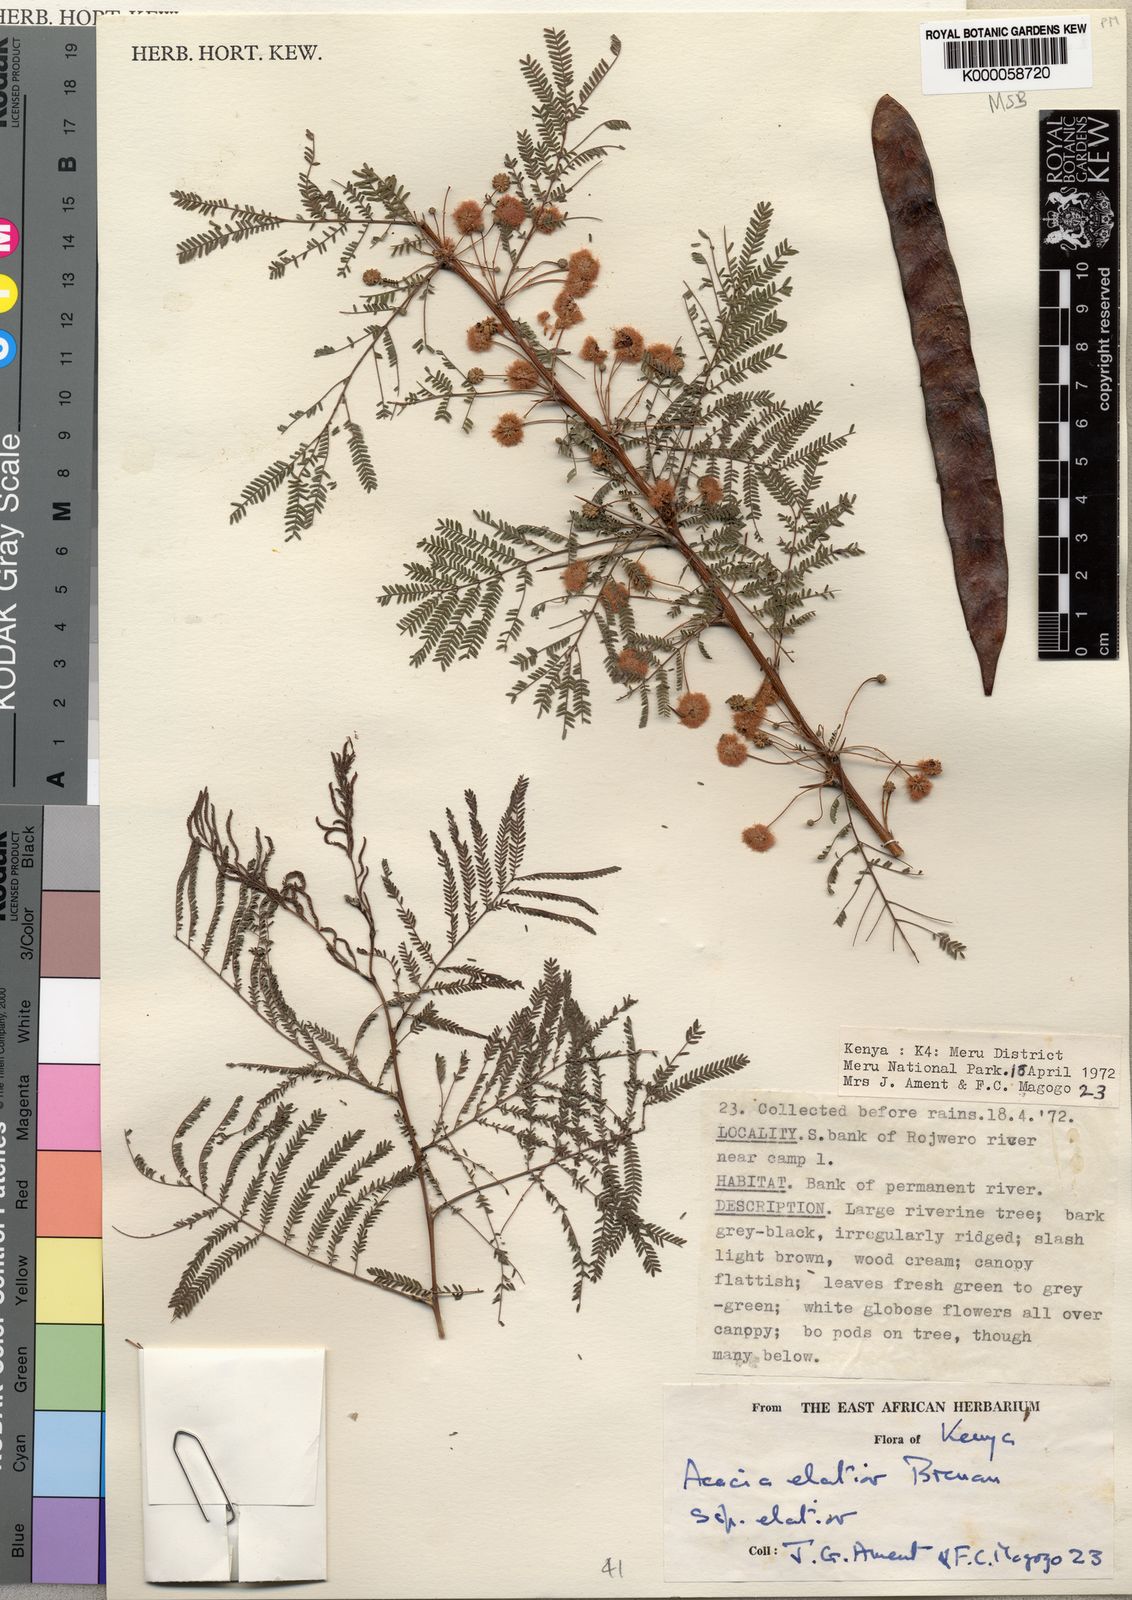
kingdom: Plantae
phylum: Tracheophyta
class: Magnoliopsida
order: Fabales
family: Fabaceae
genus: Vachellia
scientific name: Vachellia elatior
